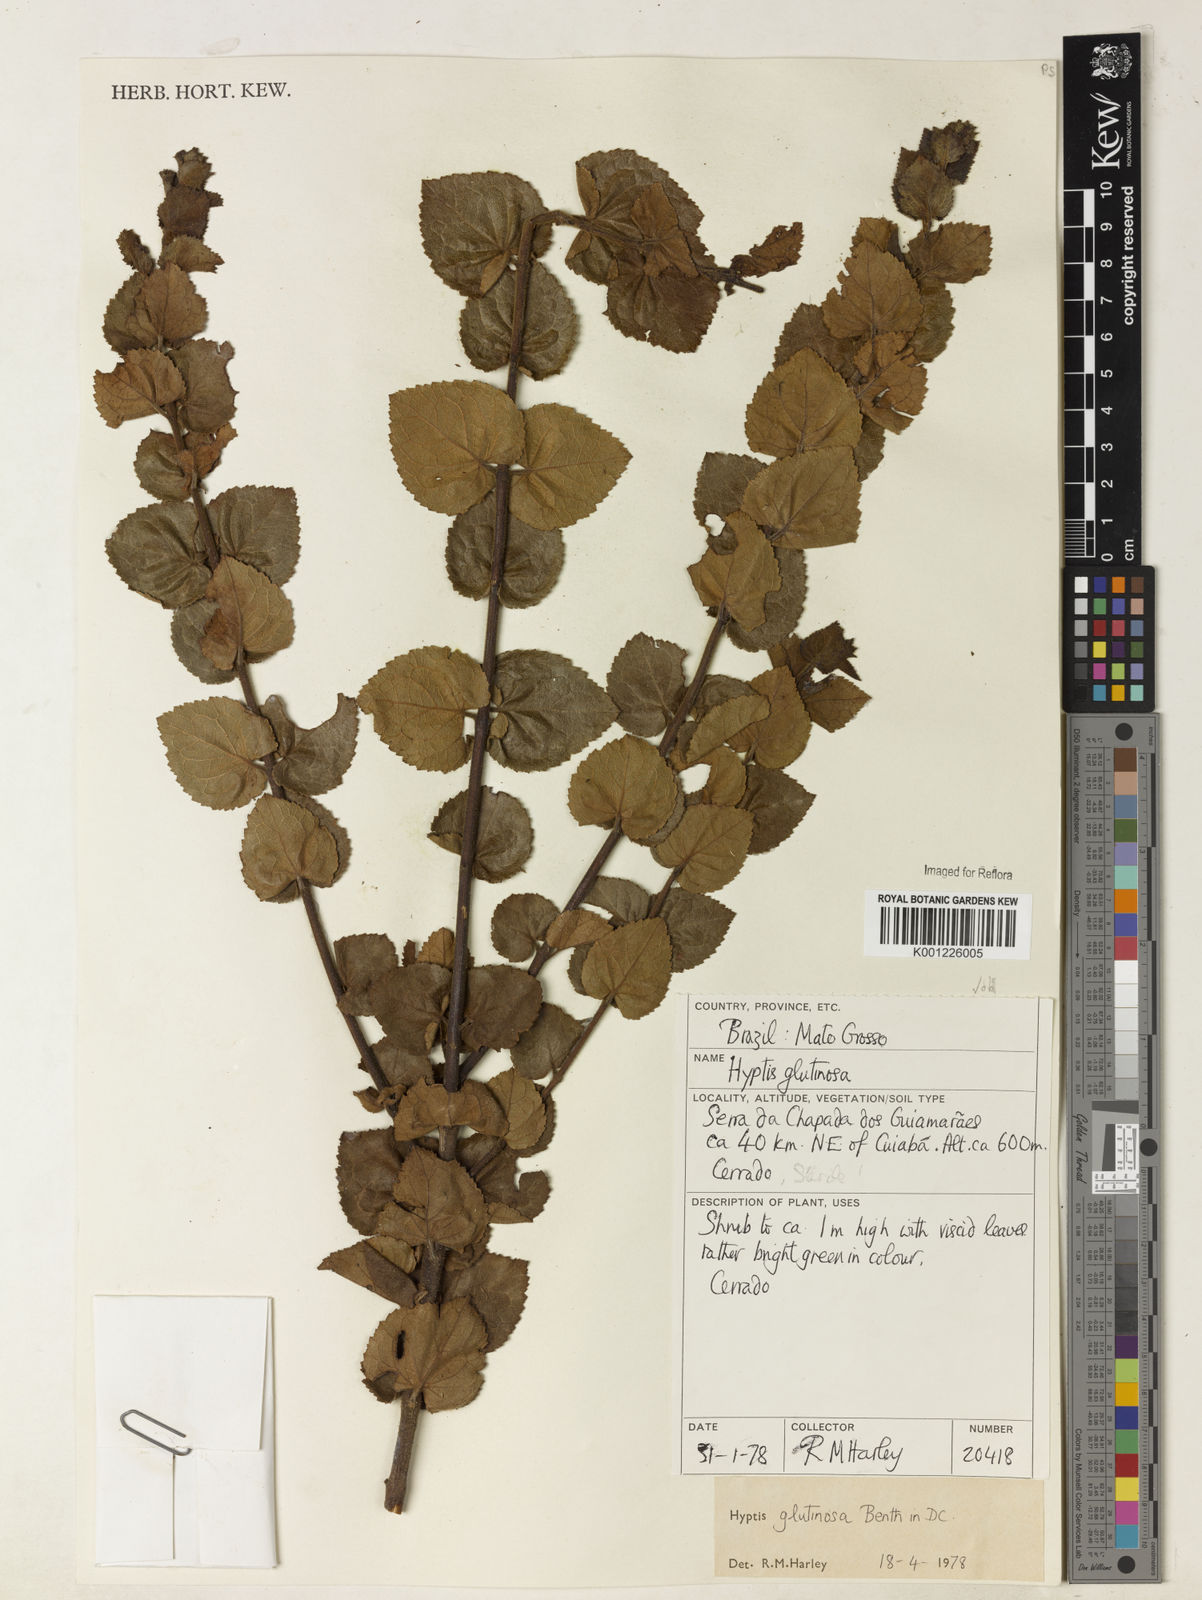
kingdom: Plantae
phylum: Tracheophyta
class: Magnoliopsida
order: Lamiales
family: Lamiaceae
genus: Hyptidendron
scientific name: Hyptidendron glutinosum
